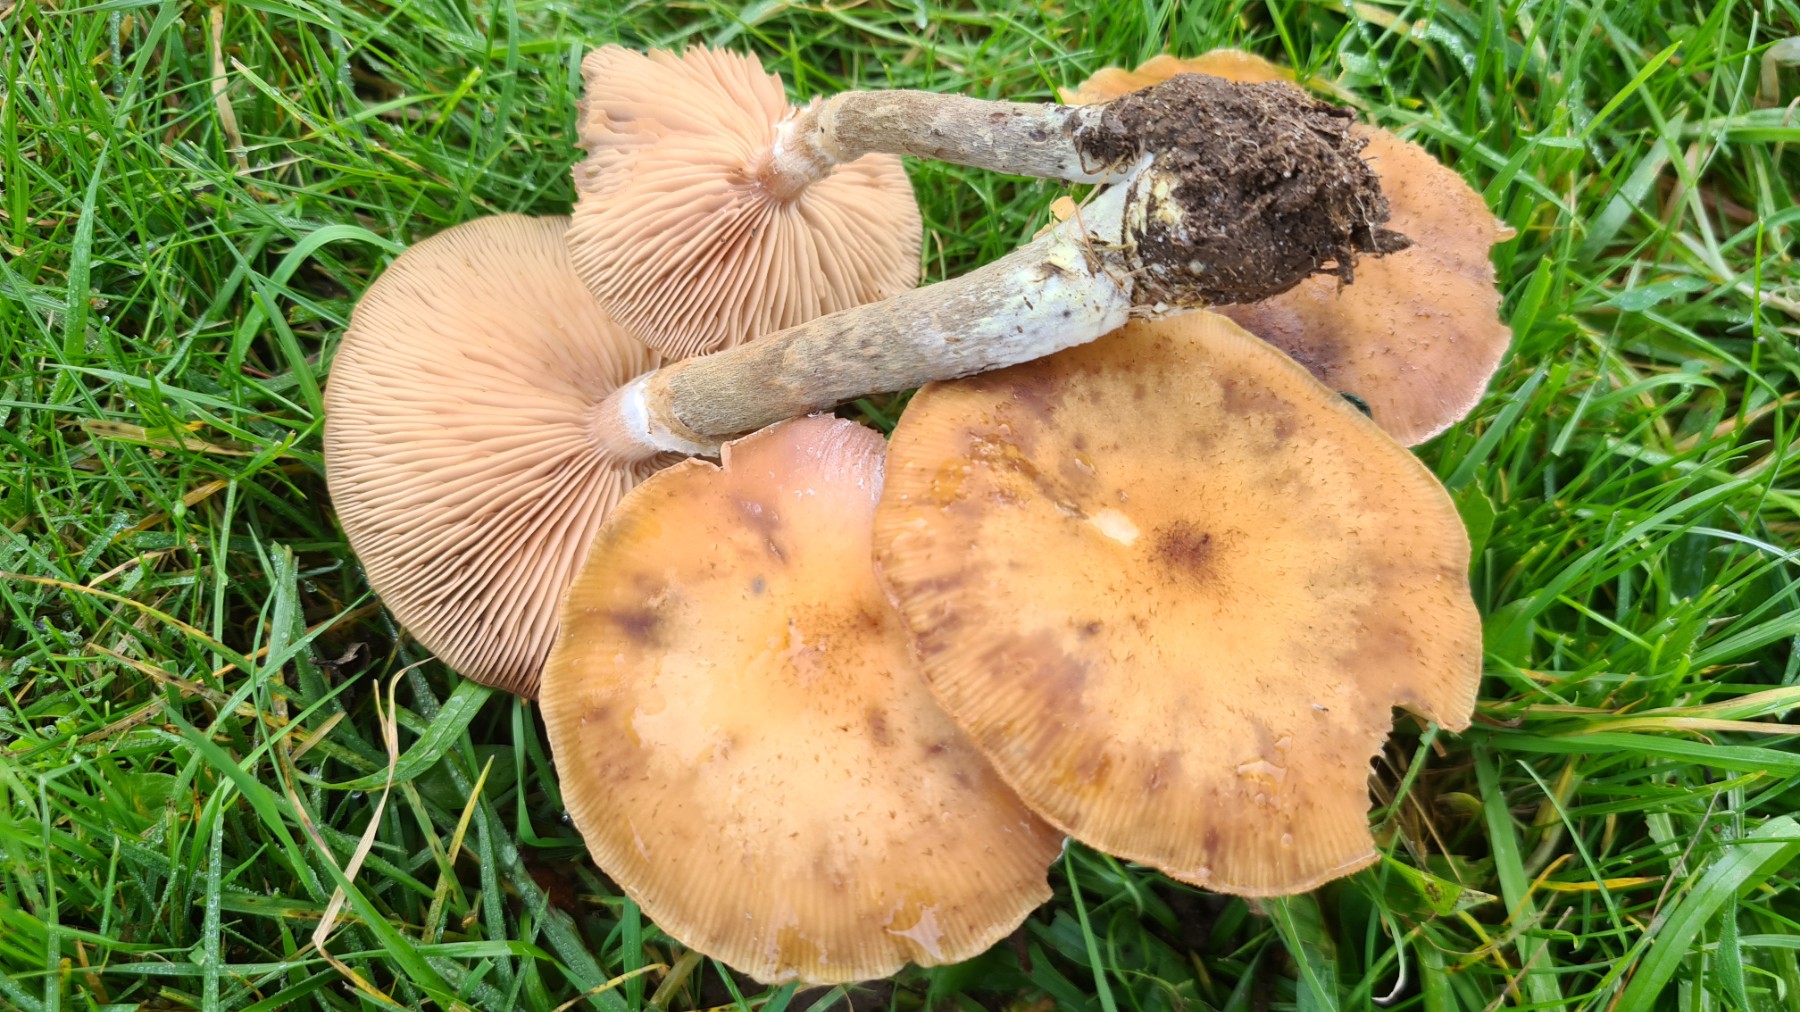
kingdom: Fungi
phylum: Basidiomycota
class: Agaricomycetes
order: Agaricales
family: Physalacriaceae
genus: Armillaria
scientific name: Armillaria lutea
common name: køllestokket honningsvamp
